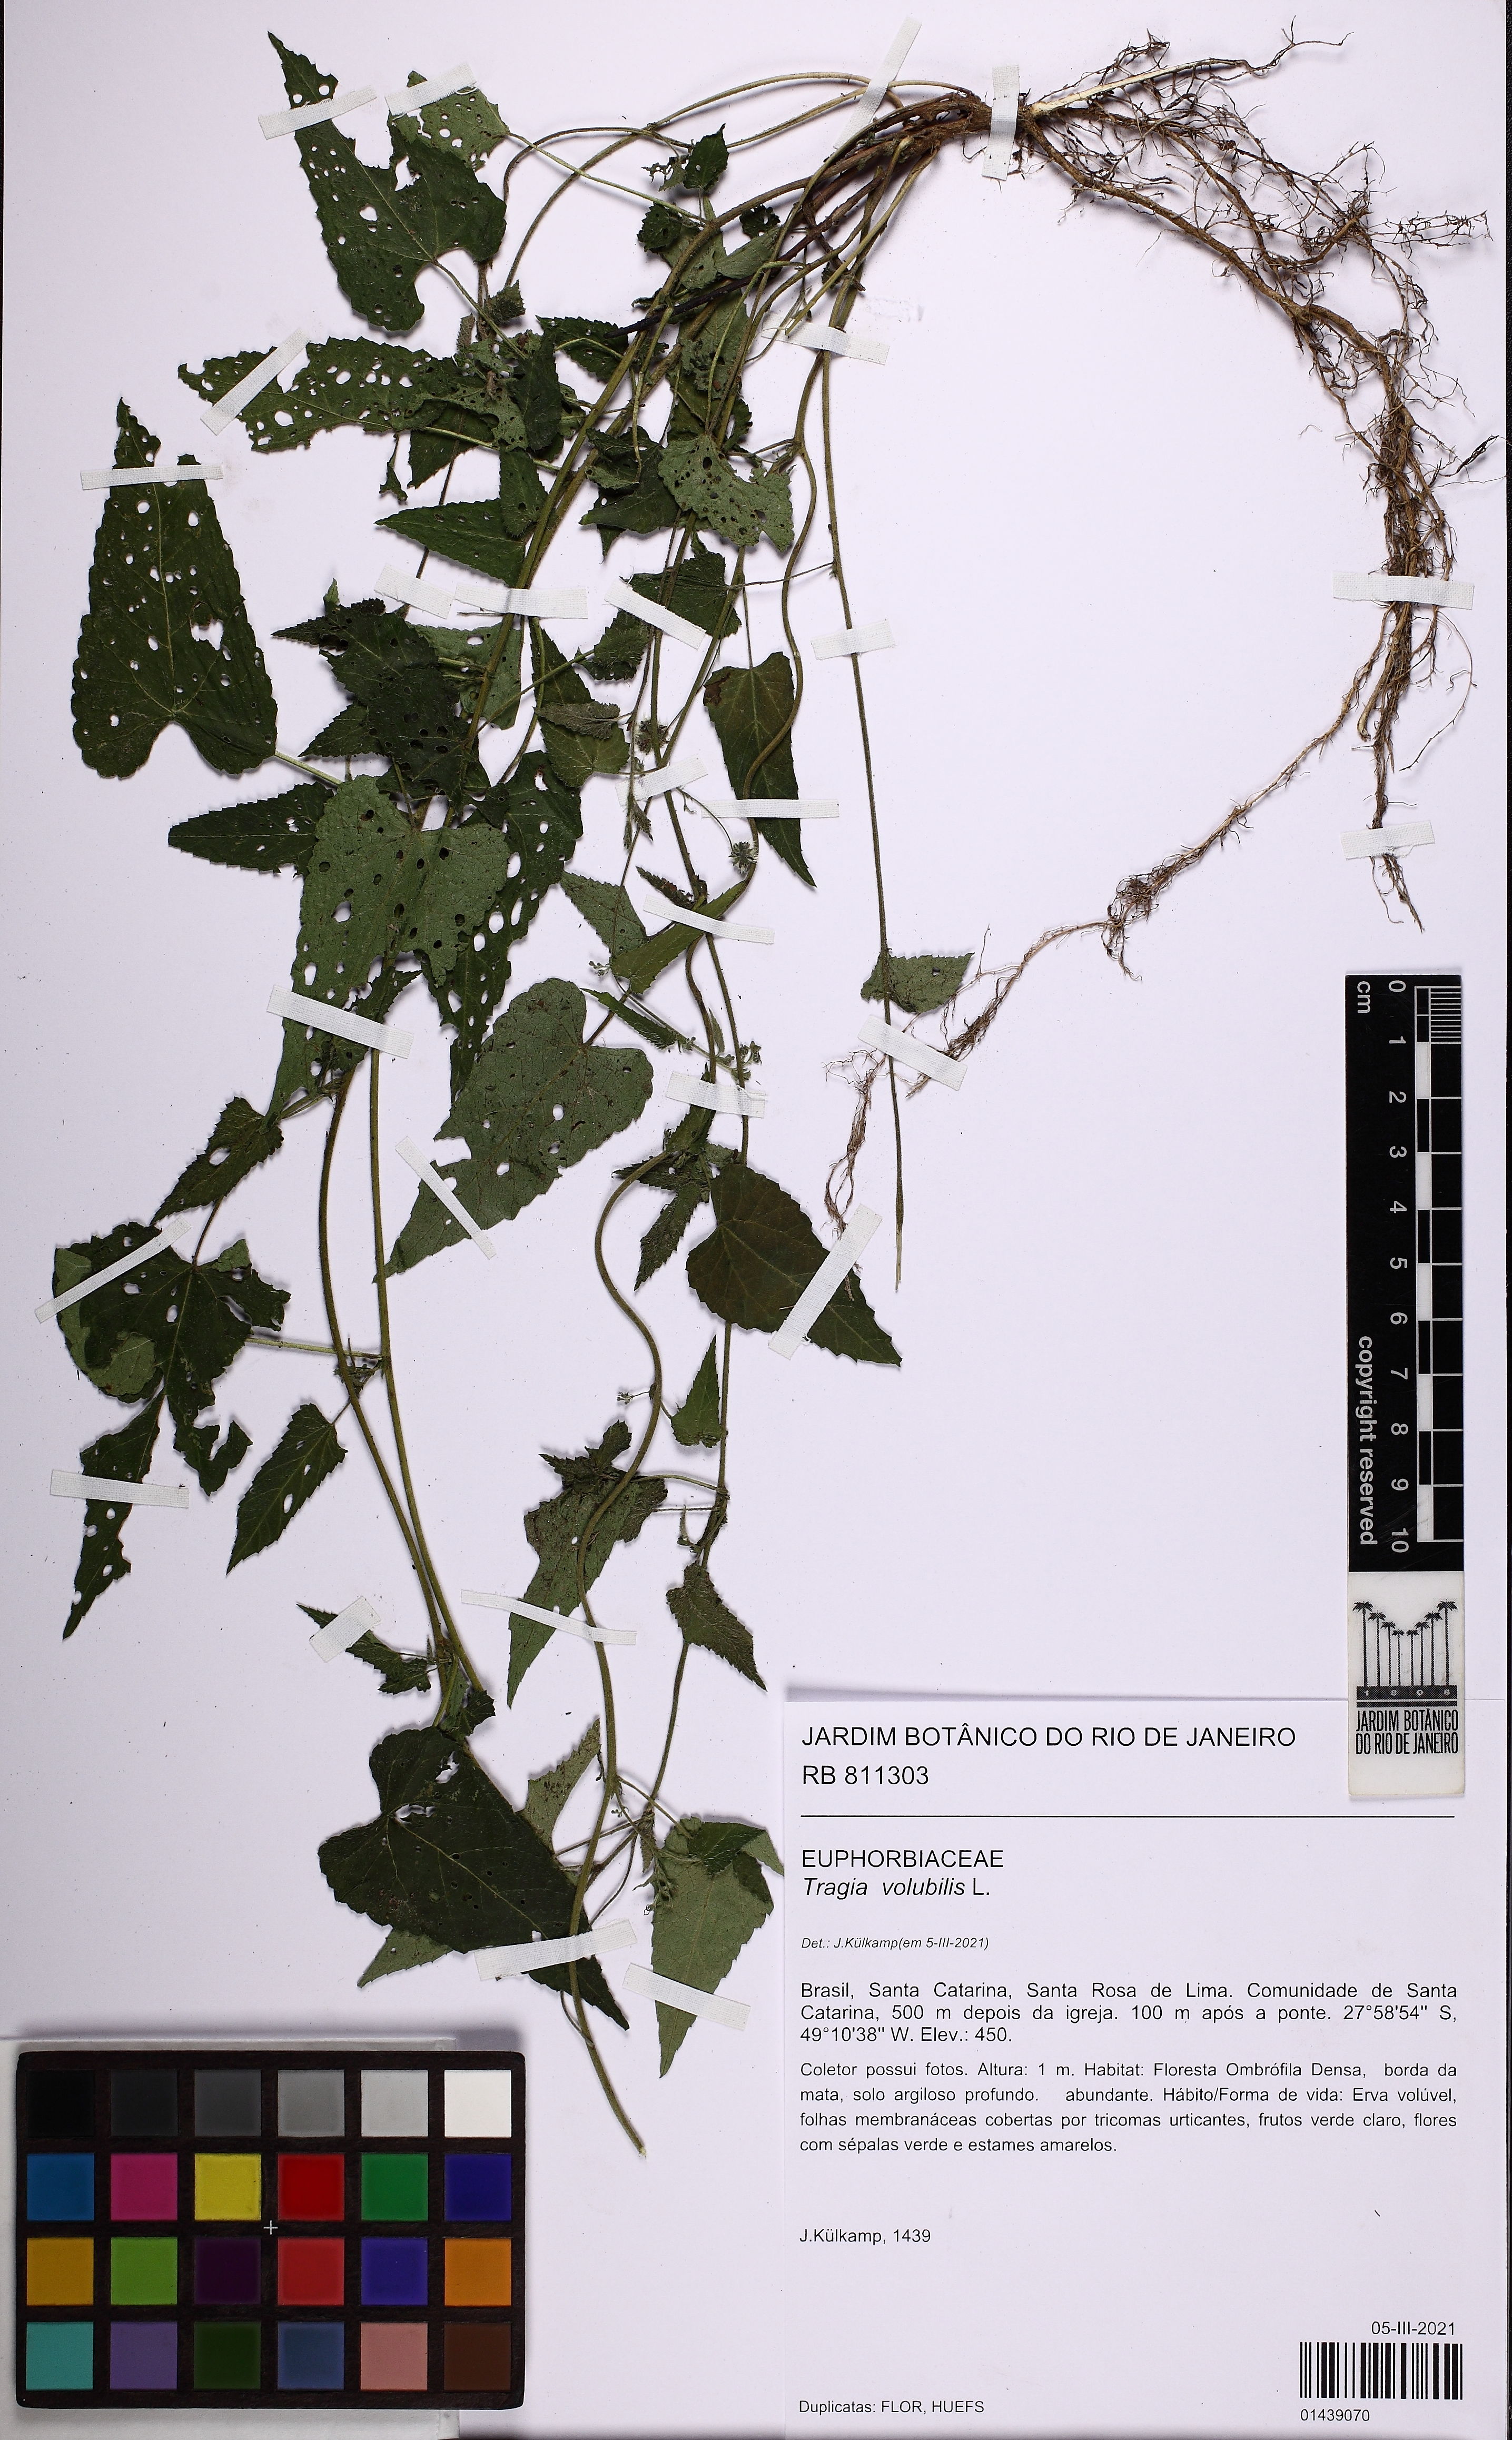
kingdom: Plantae
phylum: Tracheophyta
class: Magnoliopsida
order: Malpighiales
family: Euphorbiaceae
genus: Tragia
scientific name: Tragia volubilis
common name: Twining cow-itch
